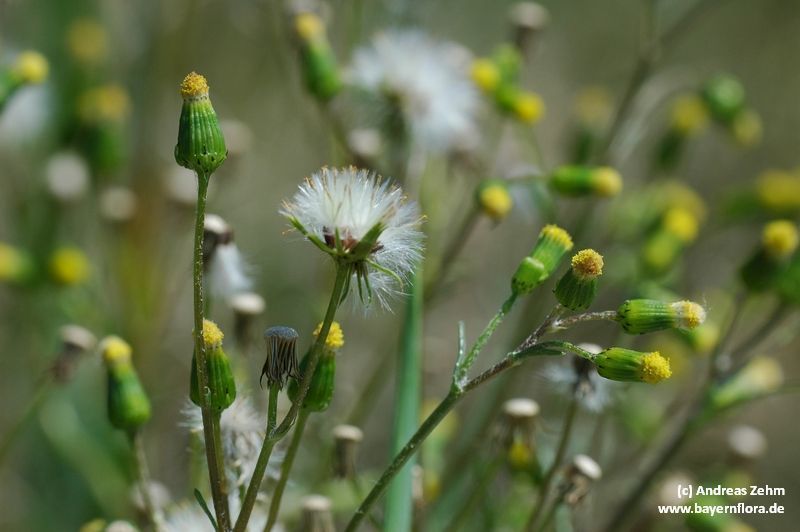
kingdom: Plantae
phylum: Tracheophyta
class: Magnoliopsida
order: Asterales
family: Asteraceae
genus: Senecio
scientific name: Senecio vulgaris
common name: Old-man-in-the-spring
